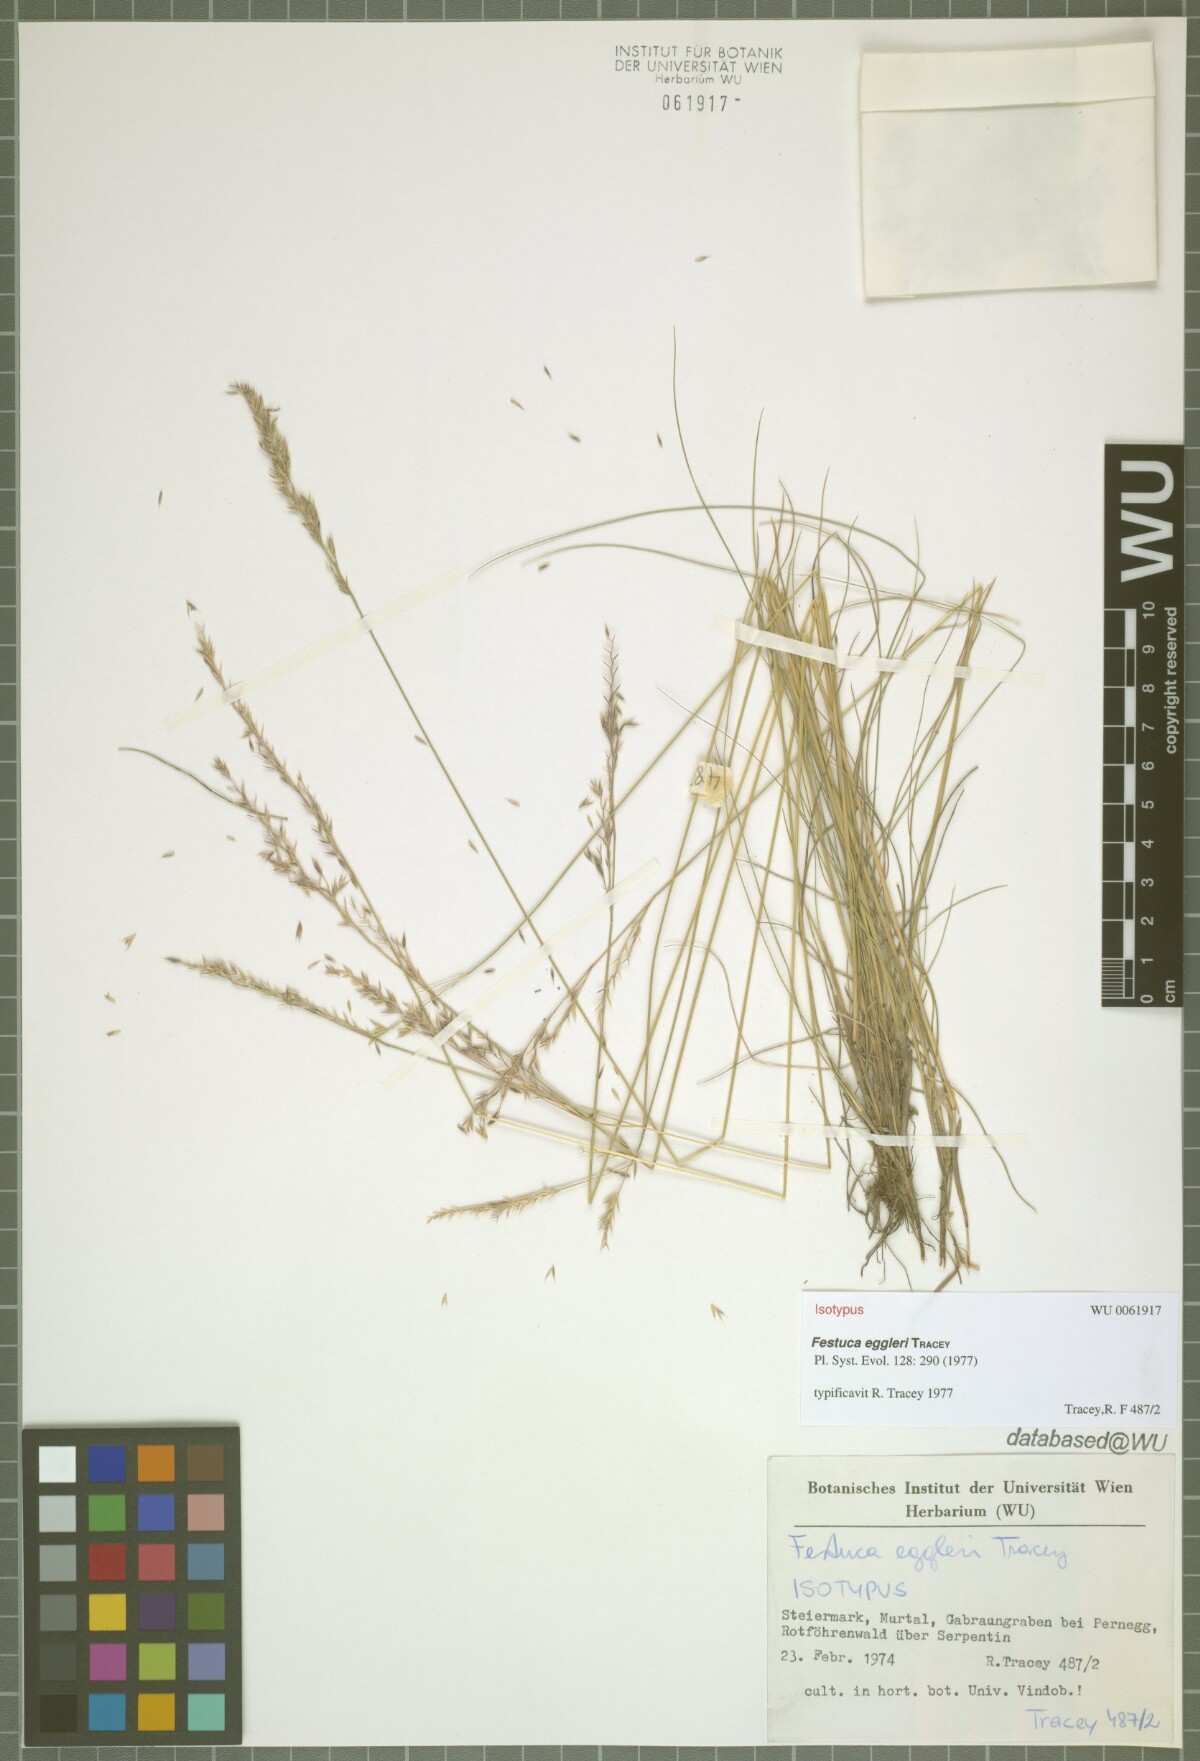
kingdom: Plantae
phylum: Tracheophyta
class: Liliopsida
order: Poales
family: Poaceae
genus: Festuca
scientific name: Festuca eggleri
